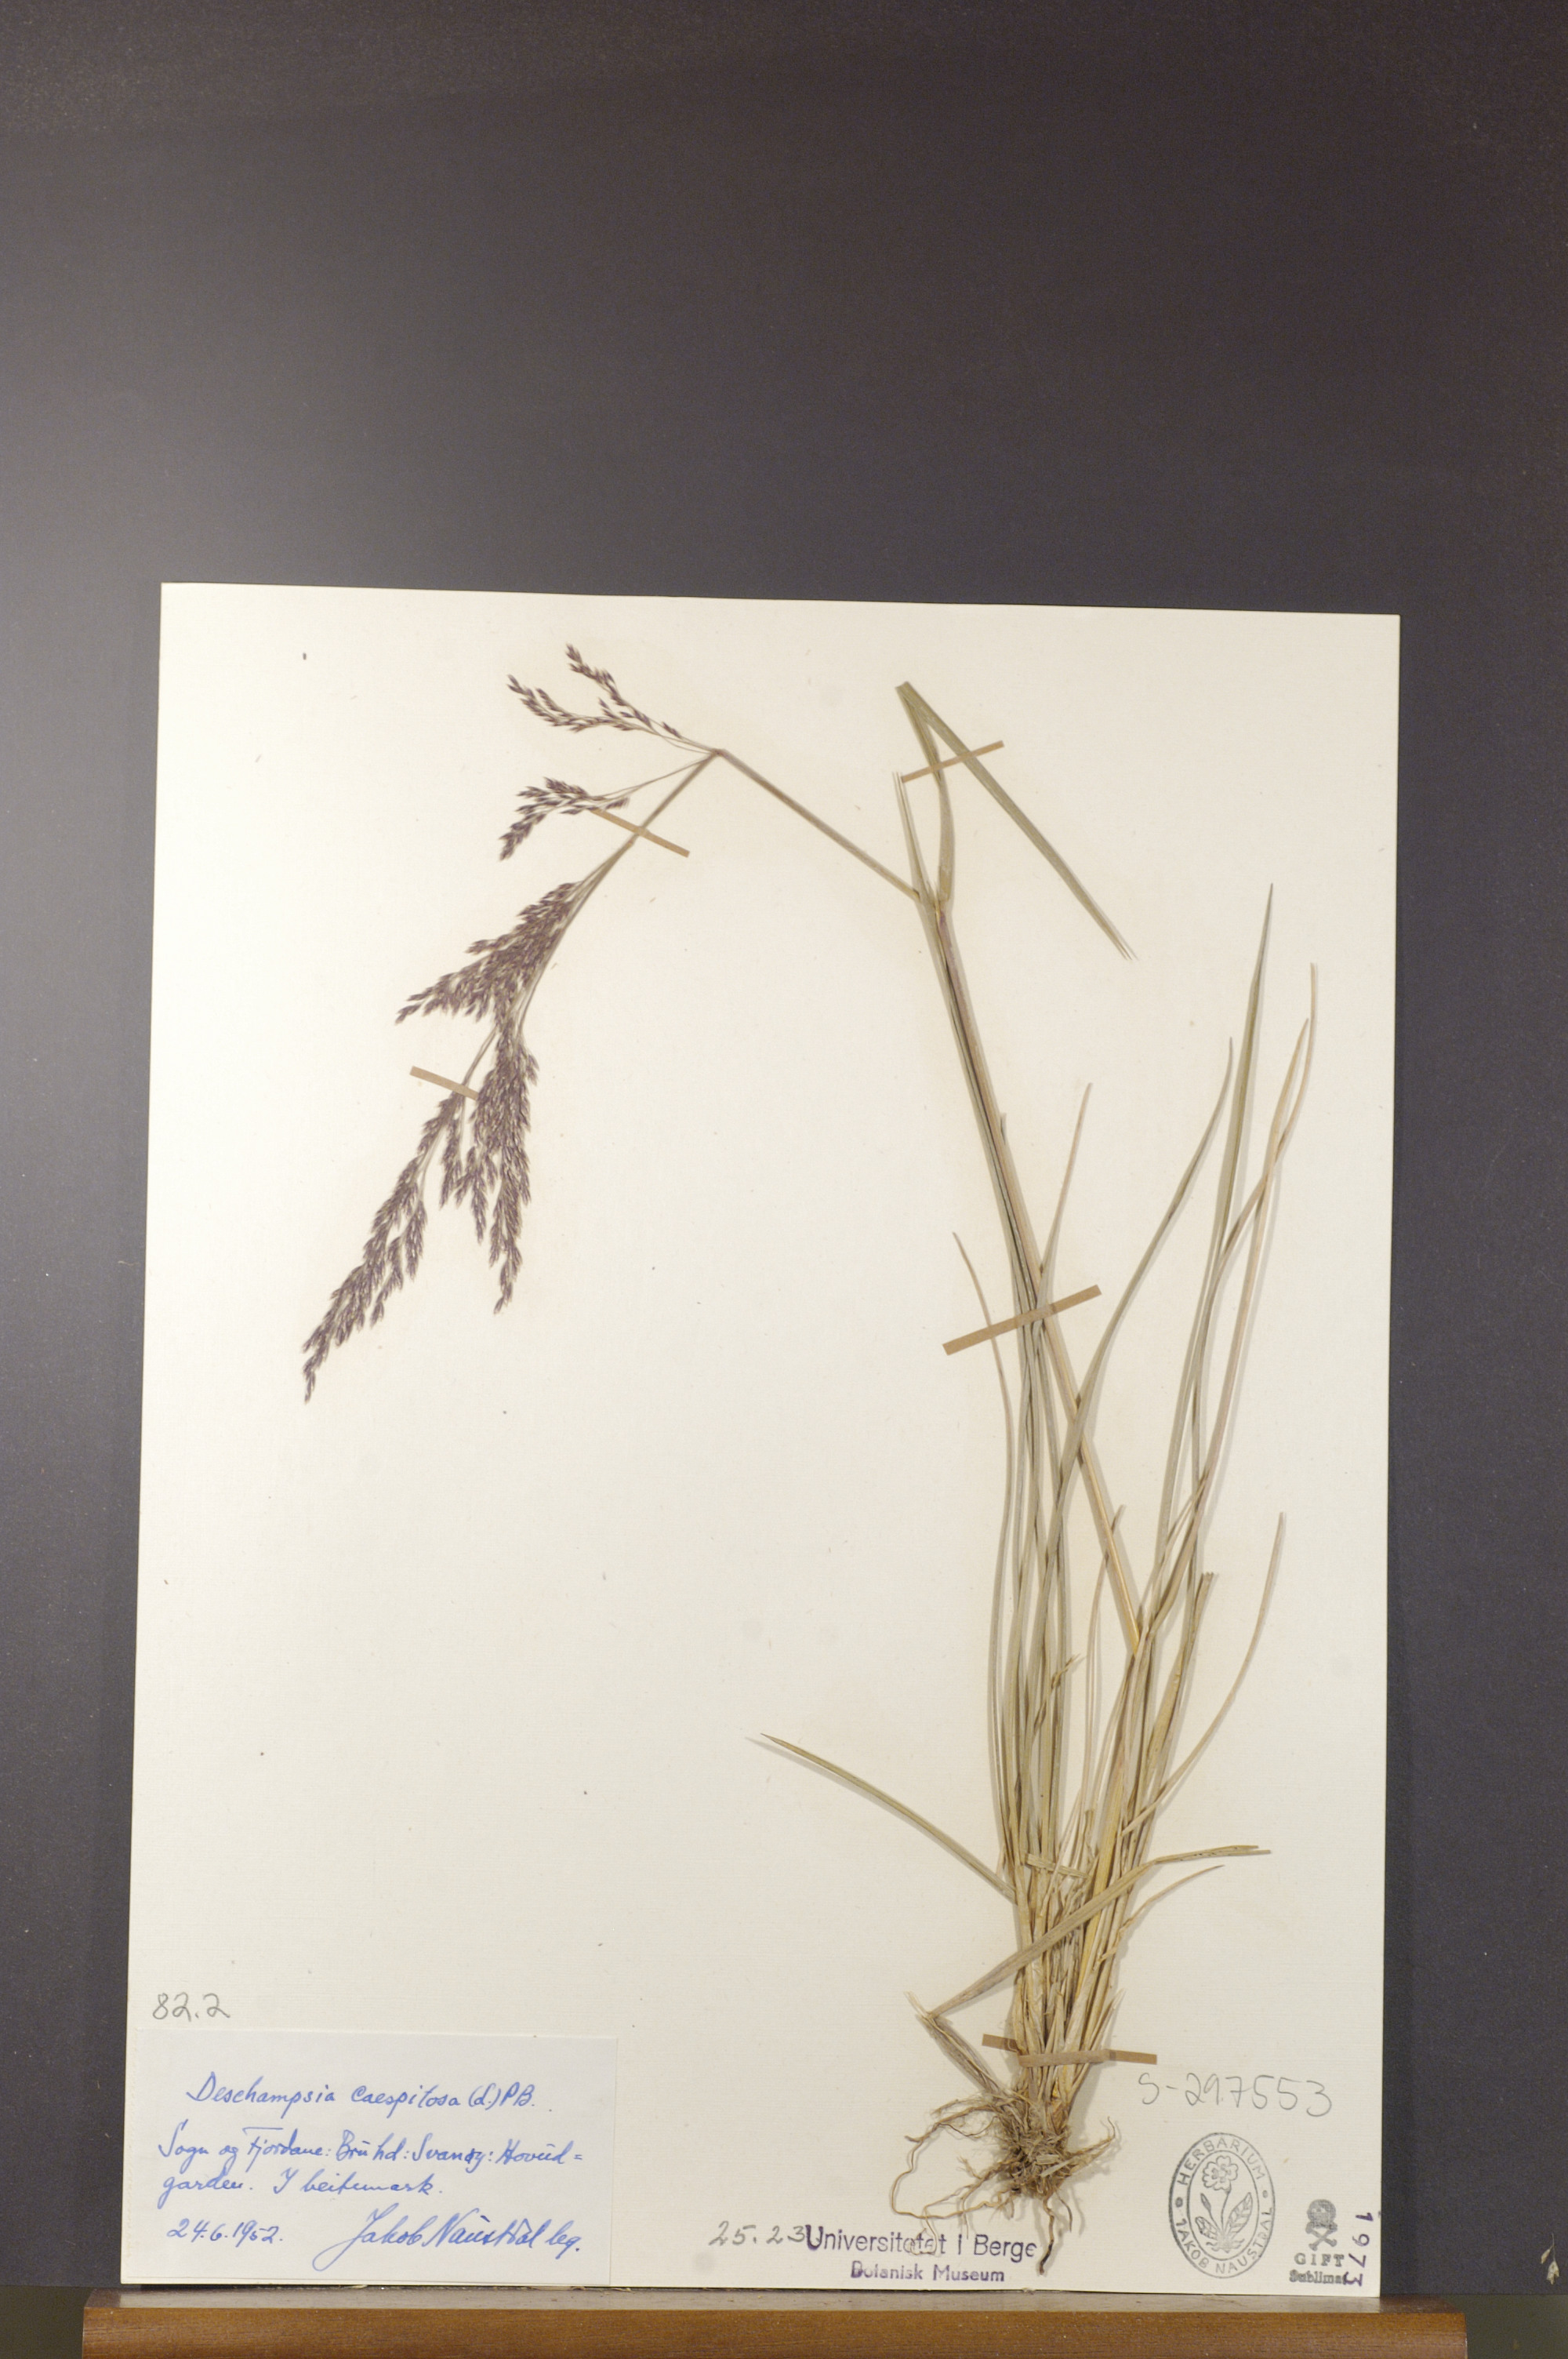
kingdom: Plantae
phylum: Tracheophyta
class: Liliopsida
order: Poales
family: Poaceae
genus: Deschampsia
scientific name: Deschampsia cespitosa
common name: Tufted hair-grass
